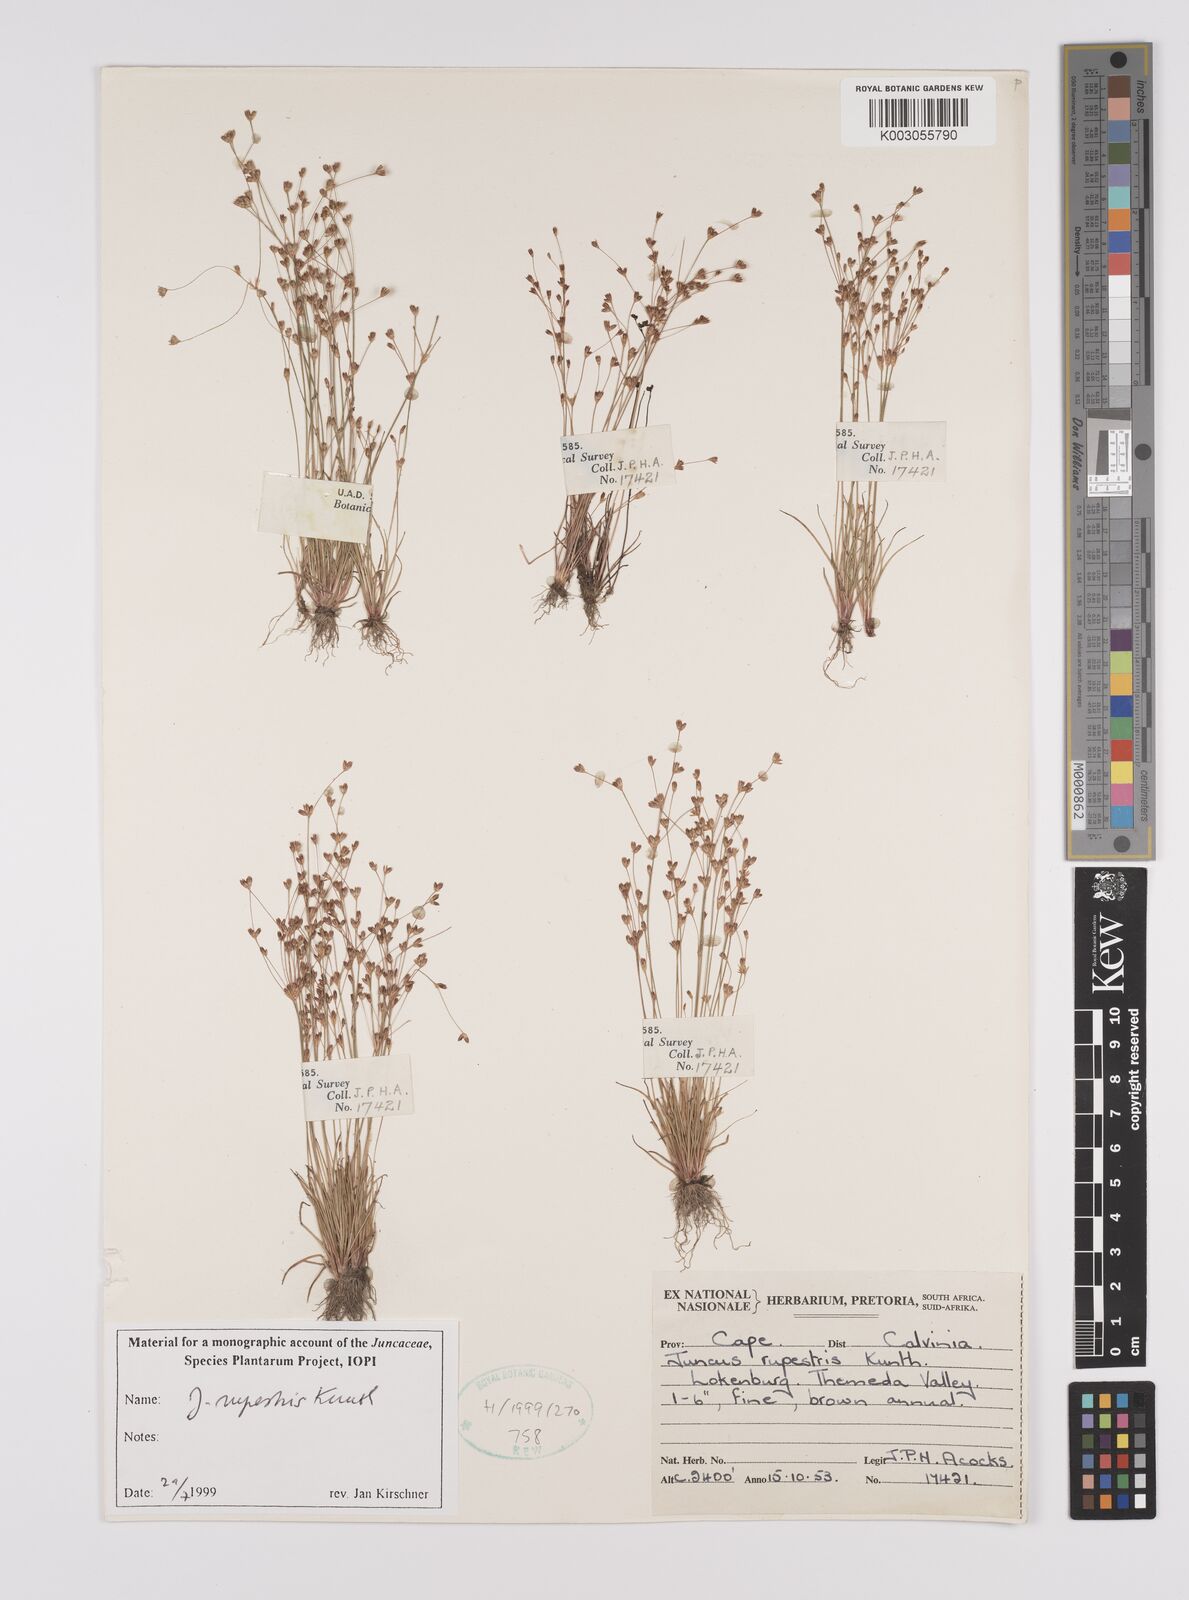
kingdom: Plantae
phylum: Tracheophyta
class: Liliopsida
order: Poales
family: Juncaceae
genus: Juncus
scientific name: Juncus rupestris
